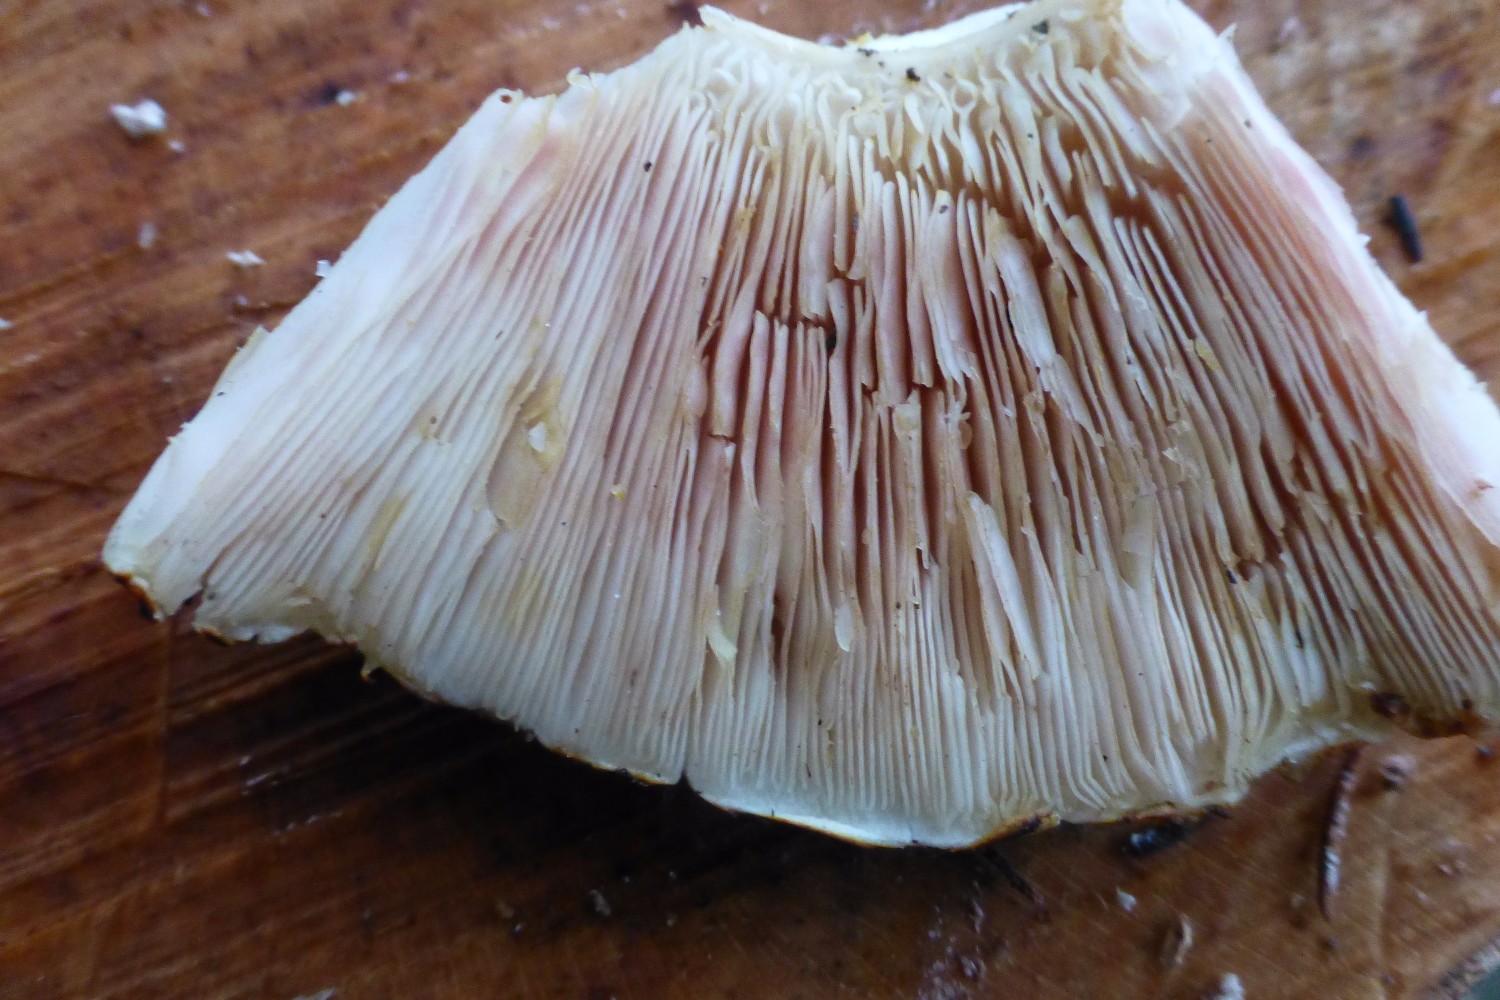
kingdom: Fungi
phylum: Basidiomycota
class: Agaricomycetes
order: Agaricales
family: Agaricaceae
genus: Agaricus
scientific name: Agaricus augustus
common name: prægtig champignon
